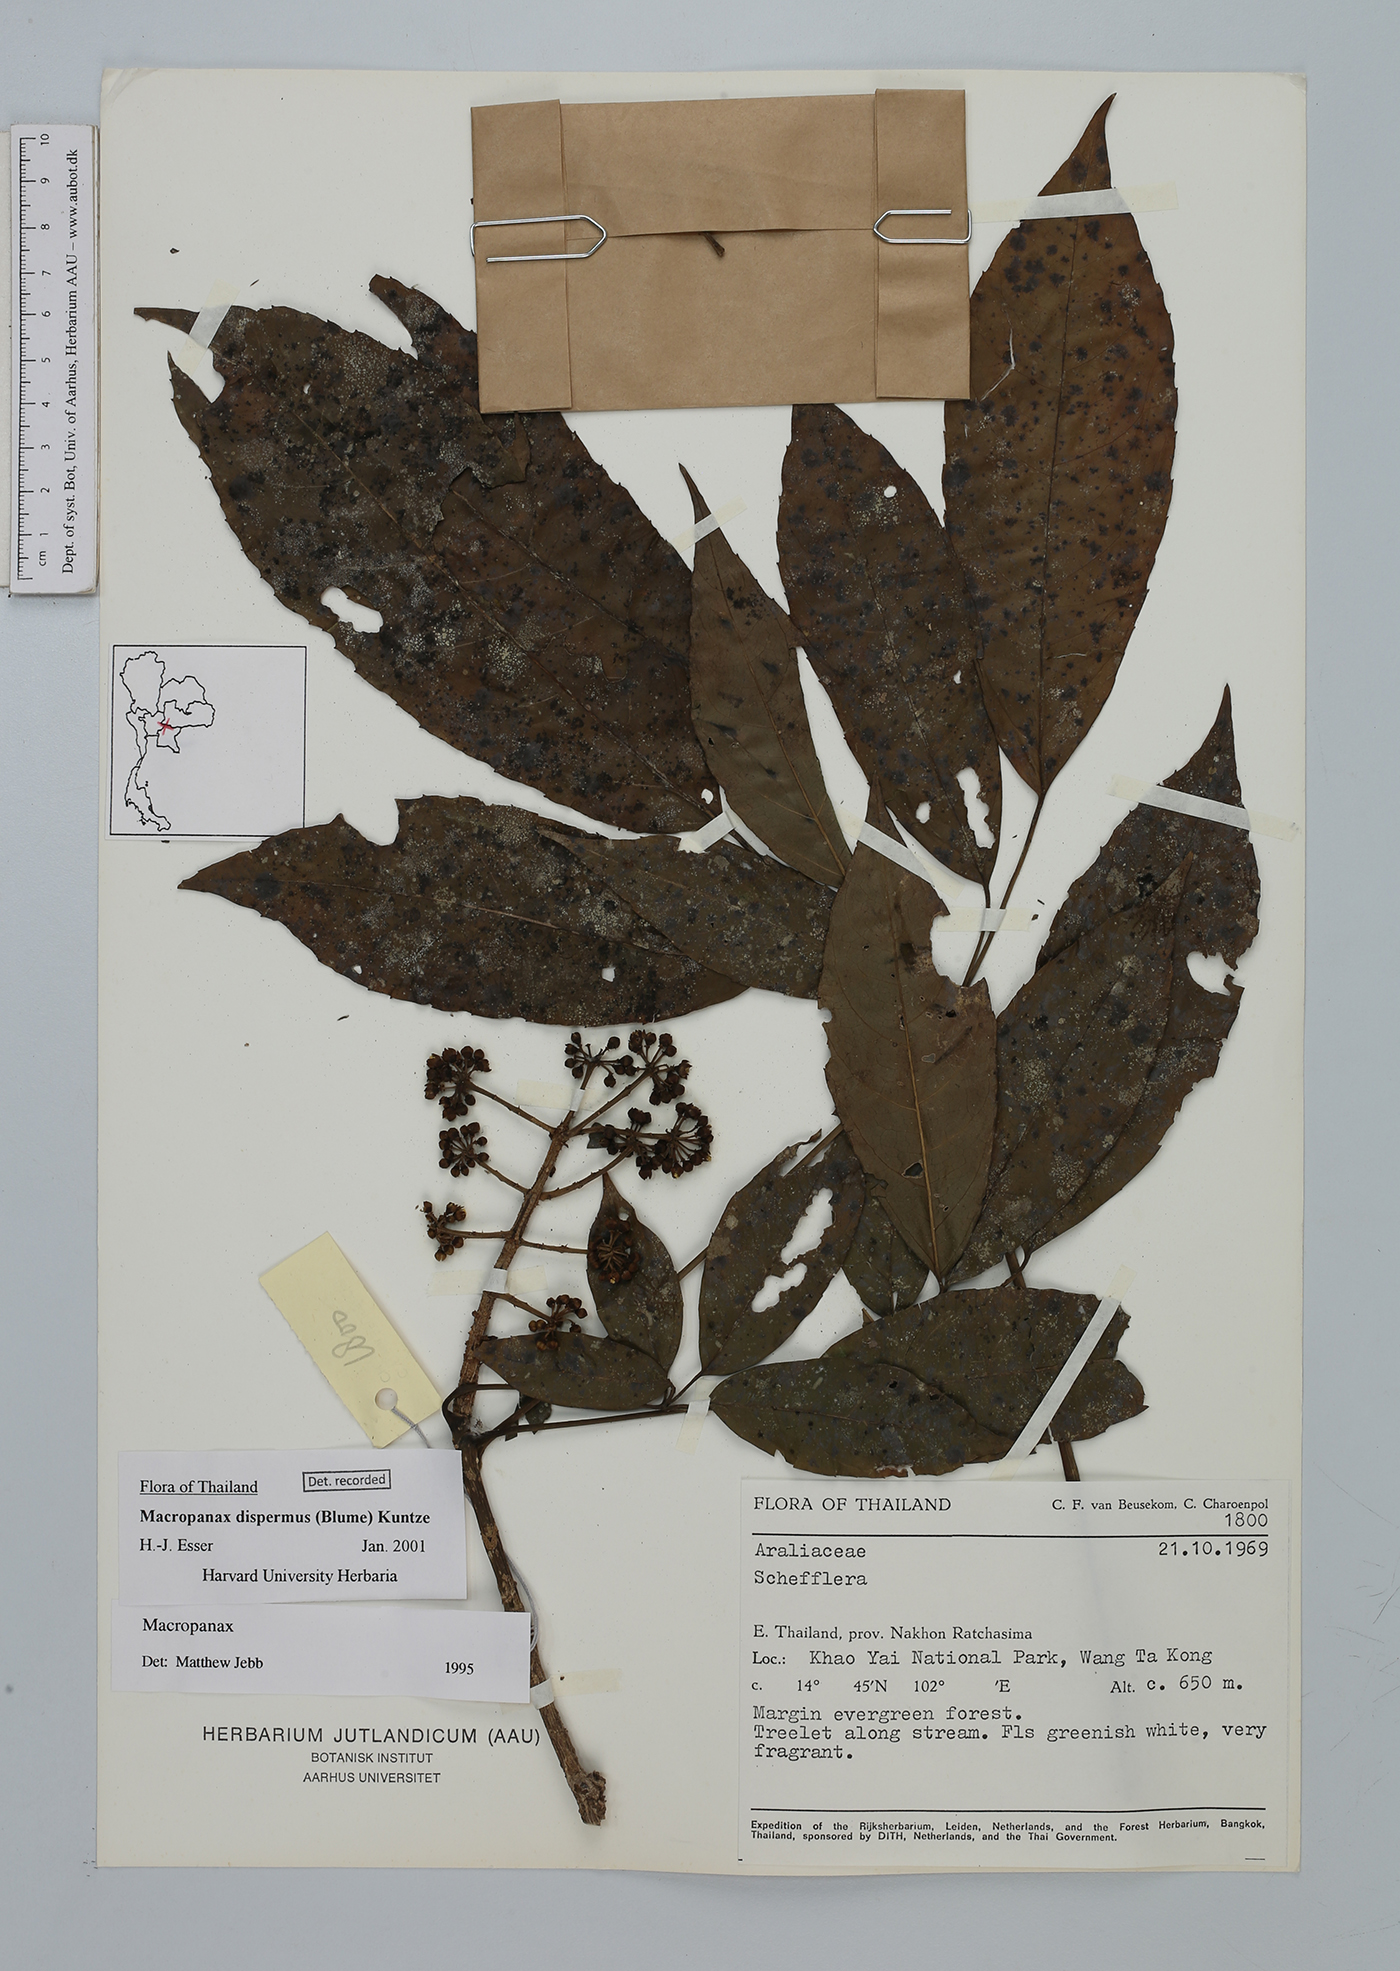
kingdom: Plantae
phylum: Tracheophyta
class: Magnoliopsida
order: Apiales
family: Araliaceae
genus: Macropanax
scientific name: Macropanax dispermus
